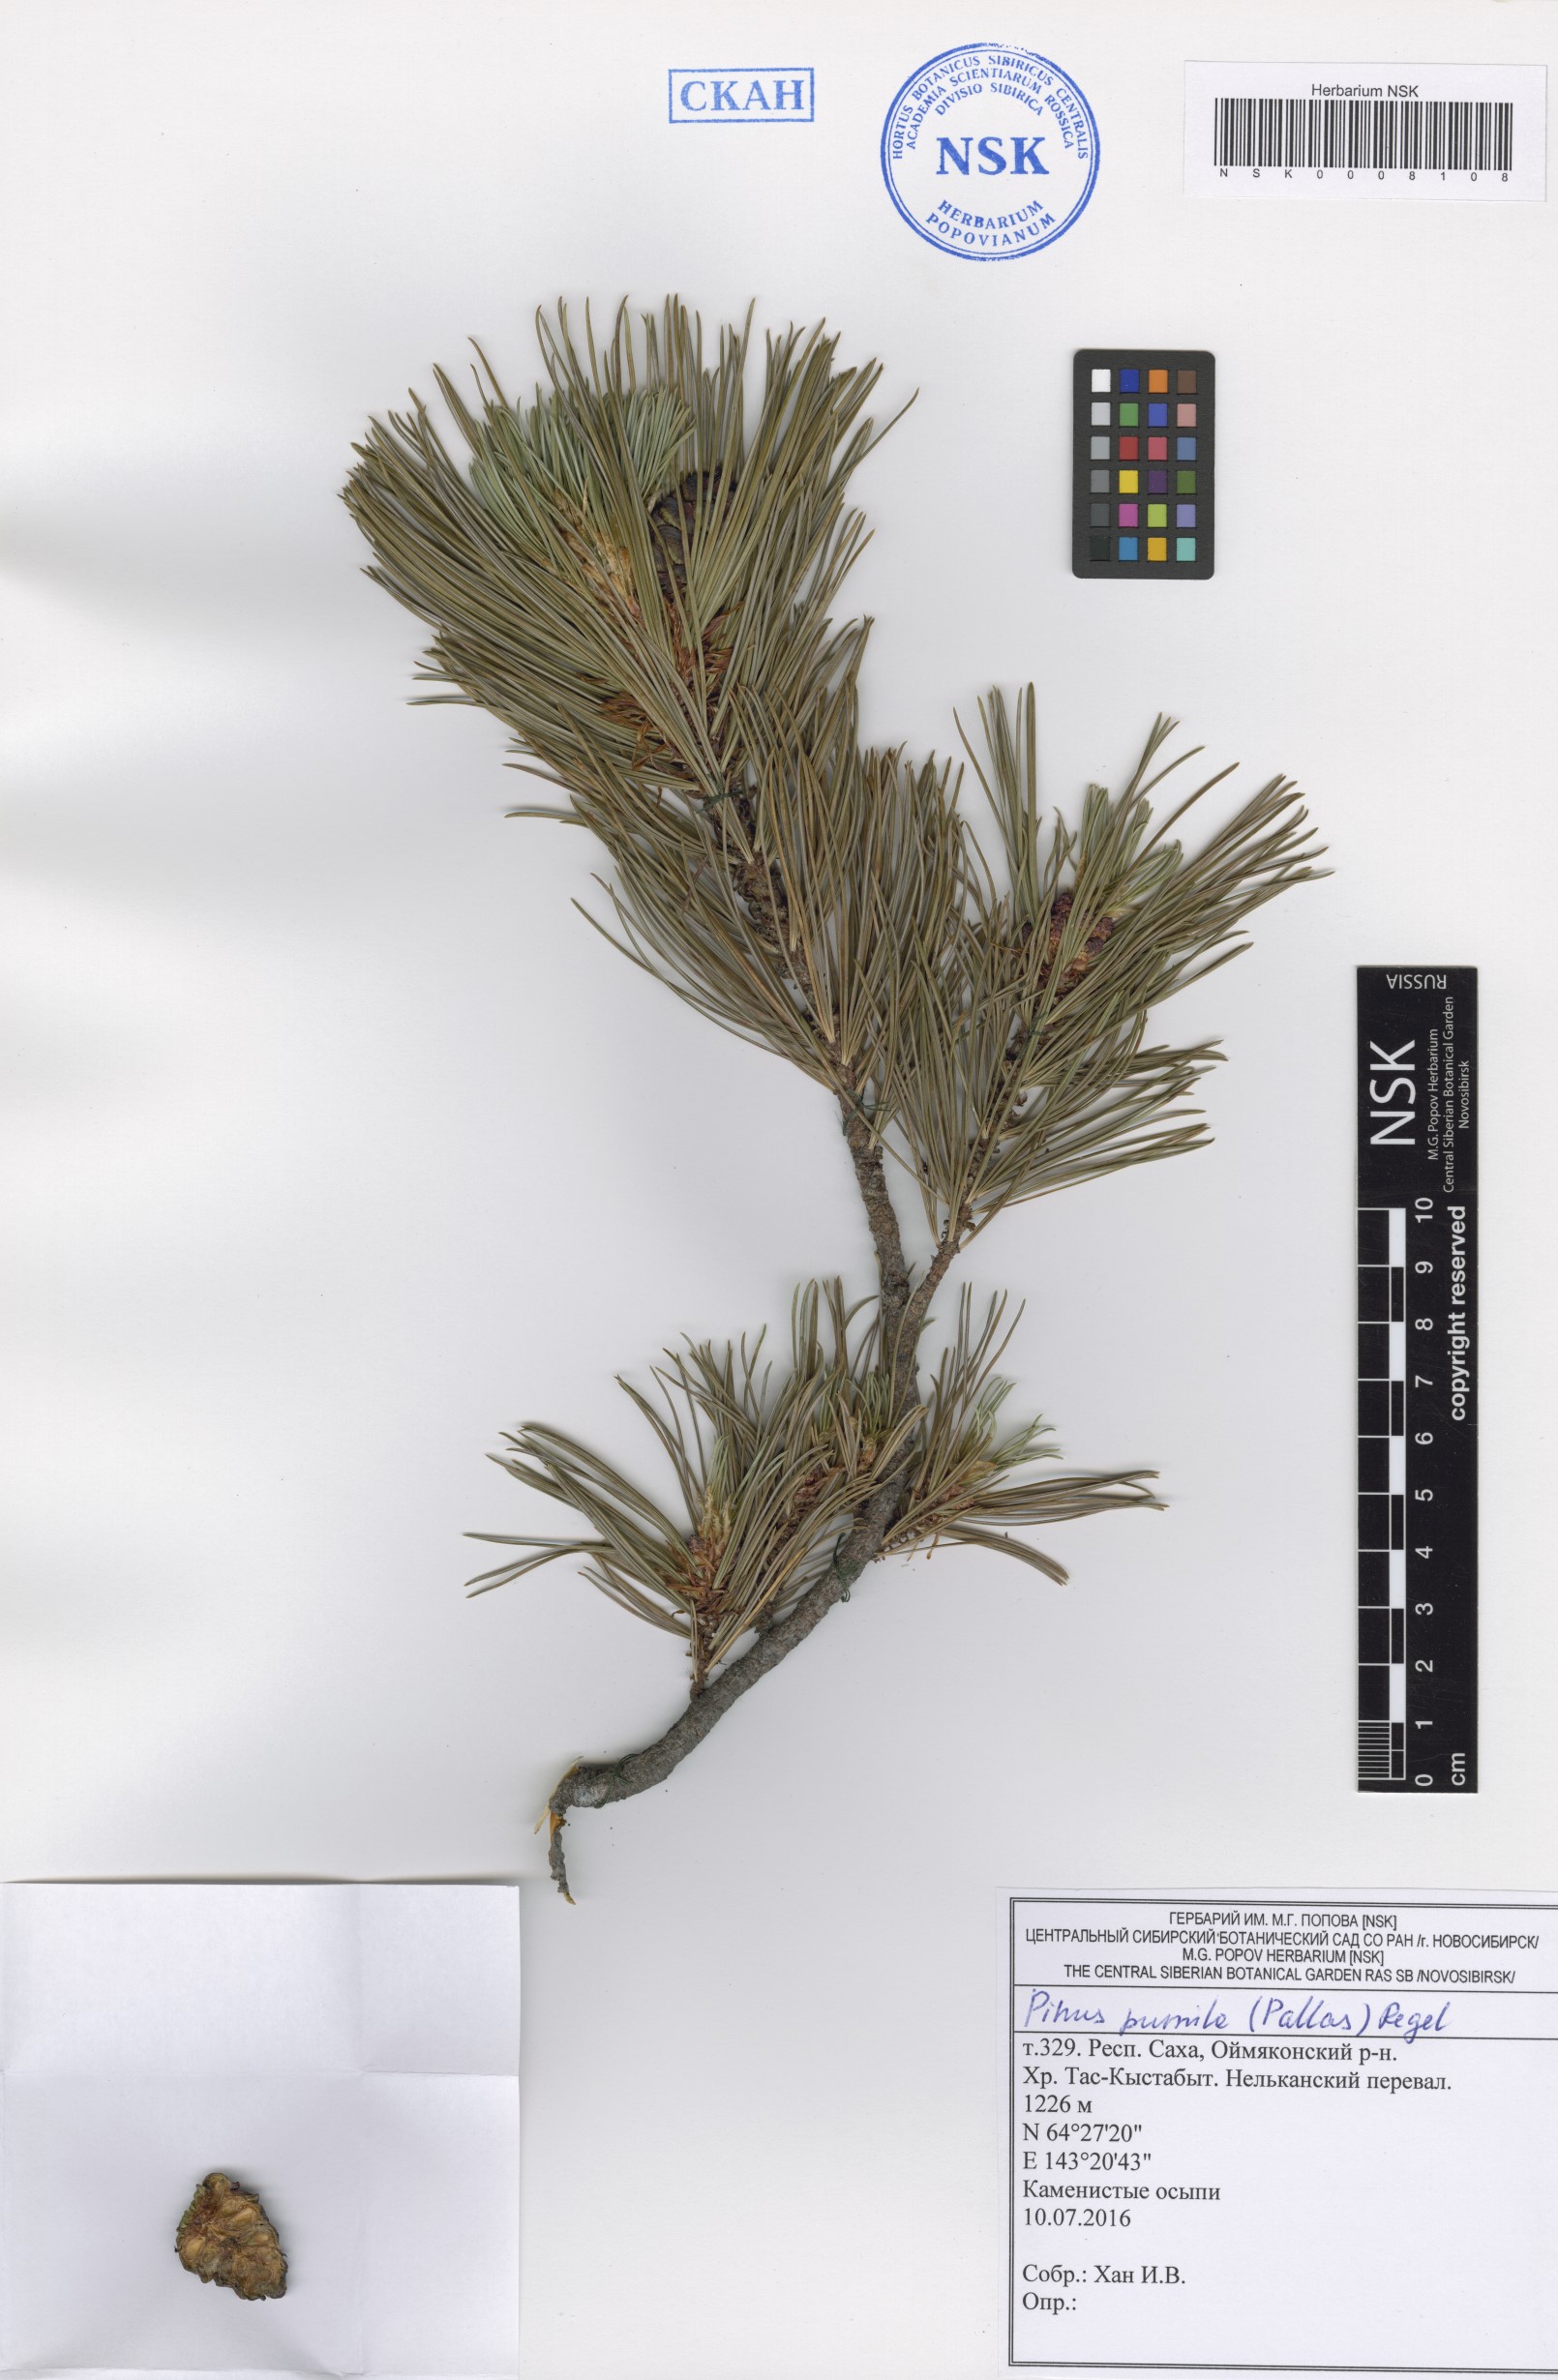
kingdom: Plantae
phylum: Tracheophyta
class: Pinopsida
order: Pinales
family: Pinaceae
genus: Pinus
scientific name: Pinus pumila
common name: Dwarf siberian pine
